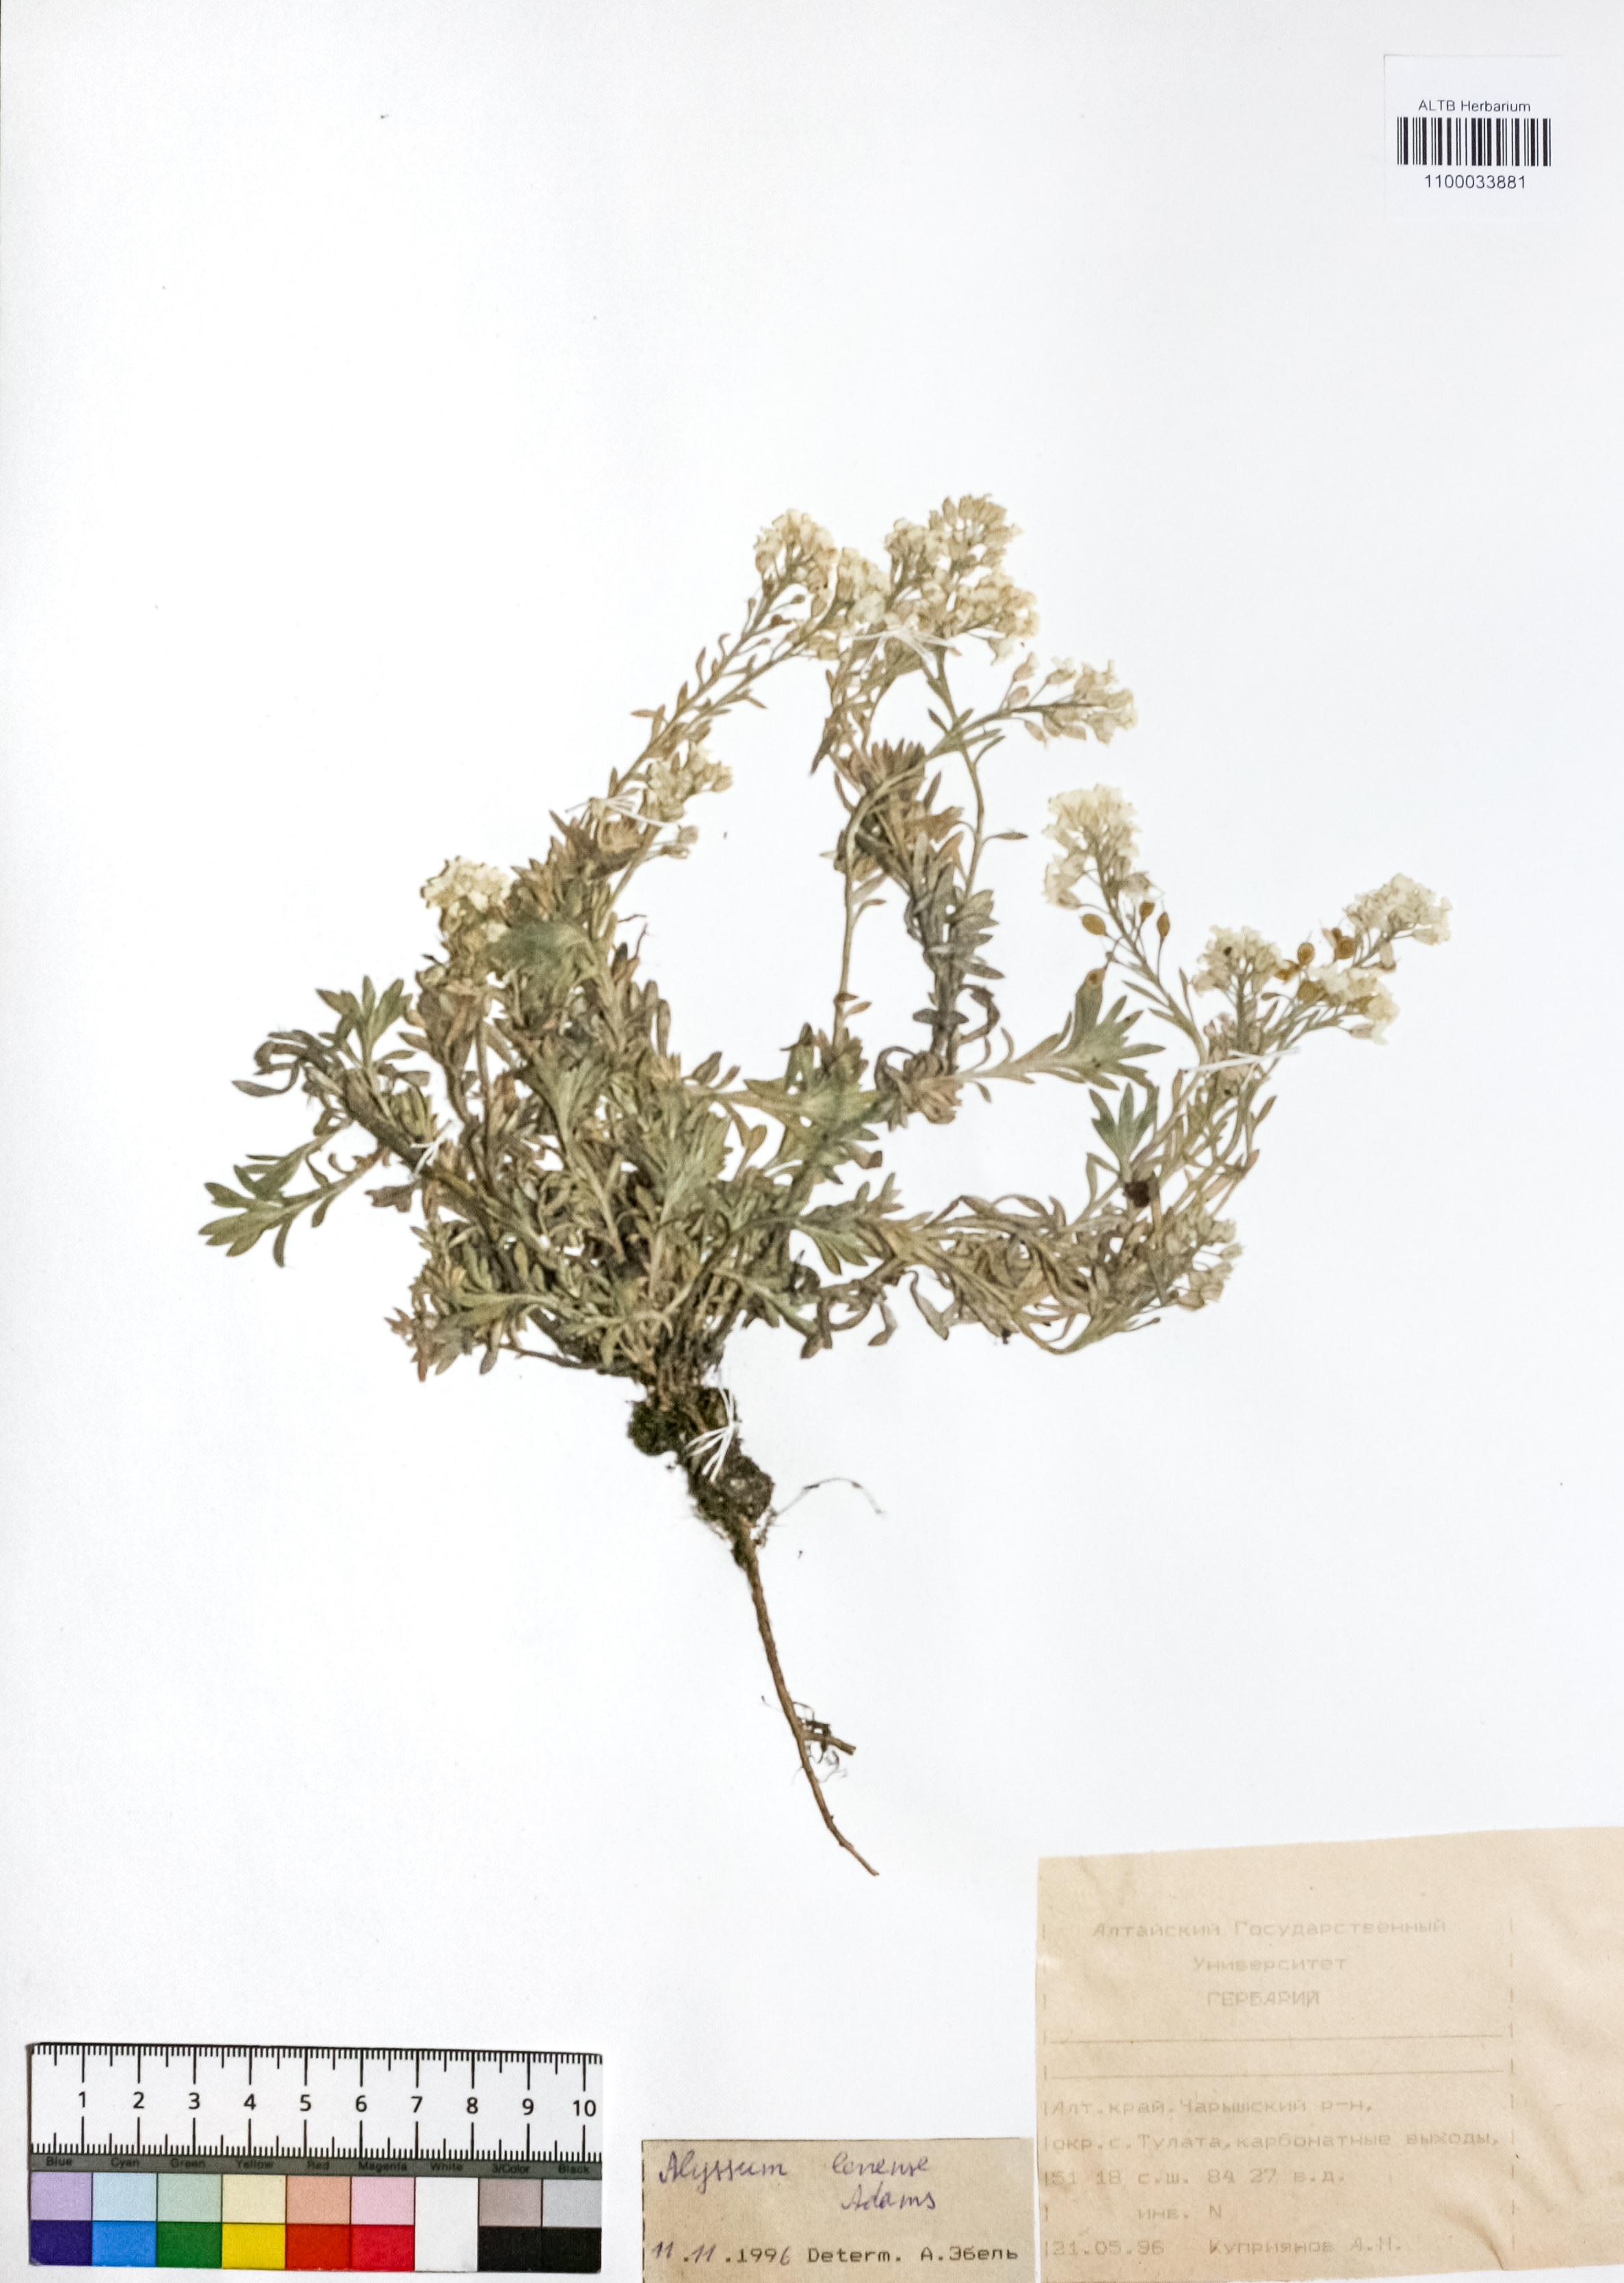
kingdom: Plantae
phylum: Tracheophyta
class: Magnoliopsida
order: Brassicales
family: Brassicaceae
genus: Alyssum
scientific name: Alyssum lenense
